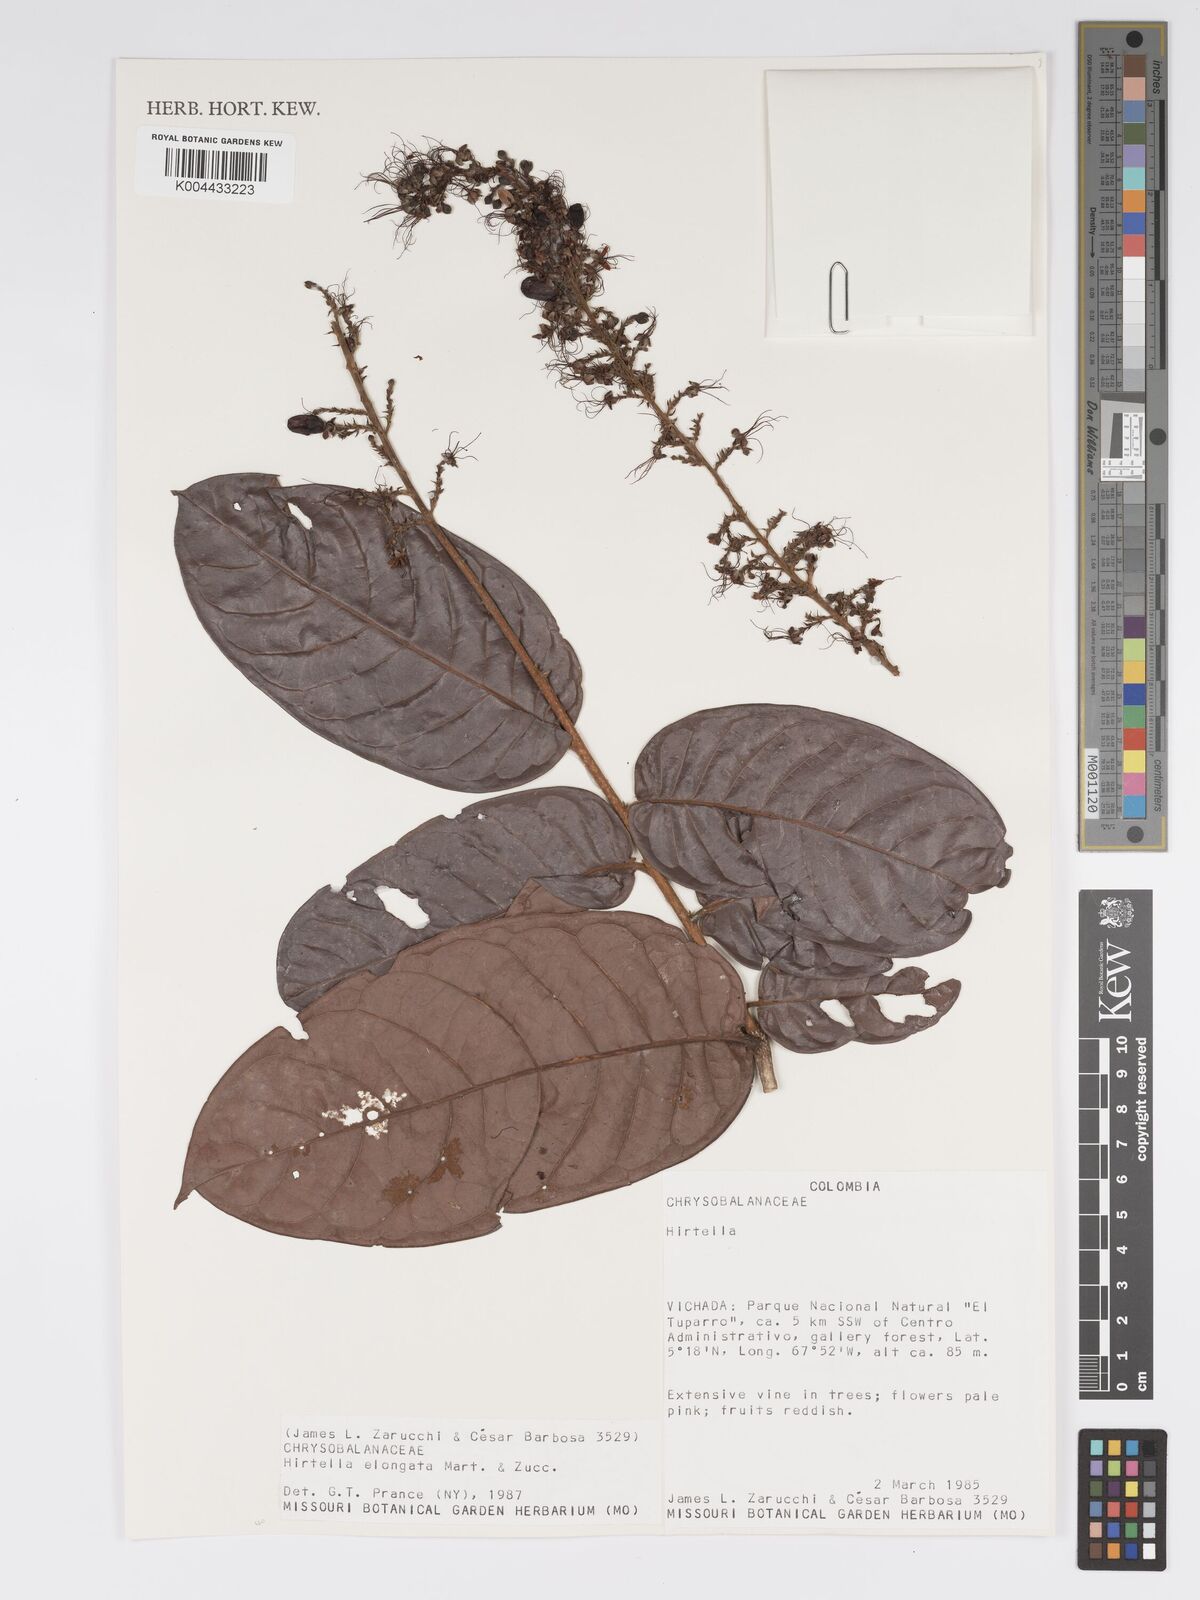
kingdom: Plantae
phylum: Tracheophyta
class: Magnoliopsida
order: Malpighiales
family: Chrysobalanaceae
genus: Hirtella
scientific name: Hirtella elongata
